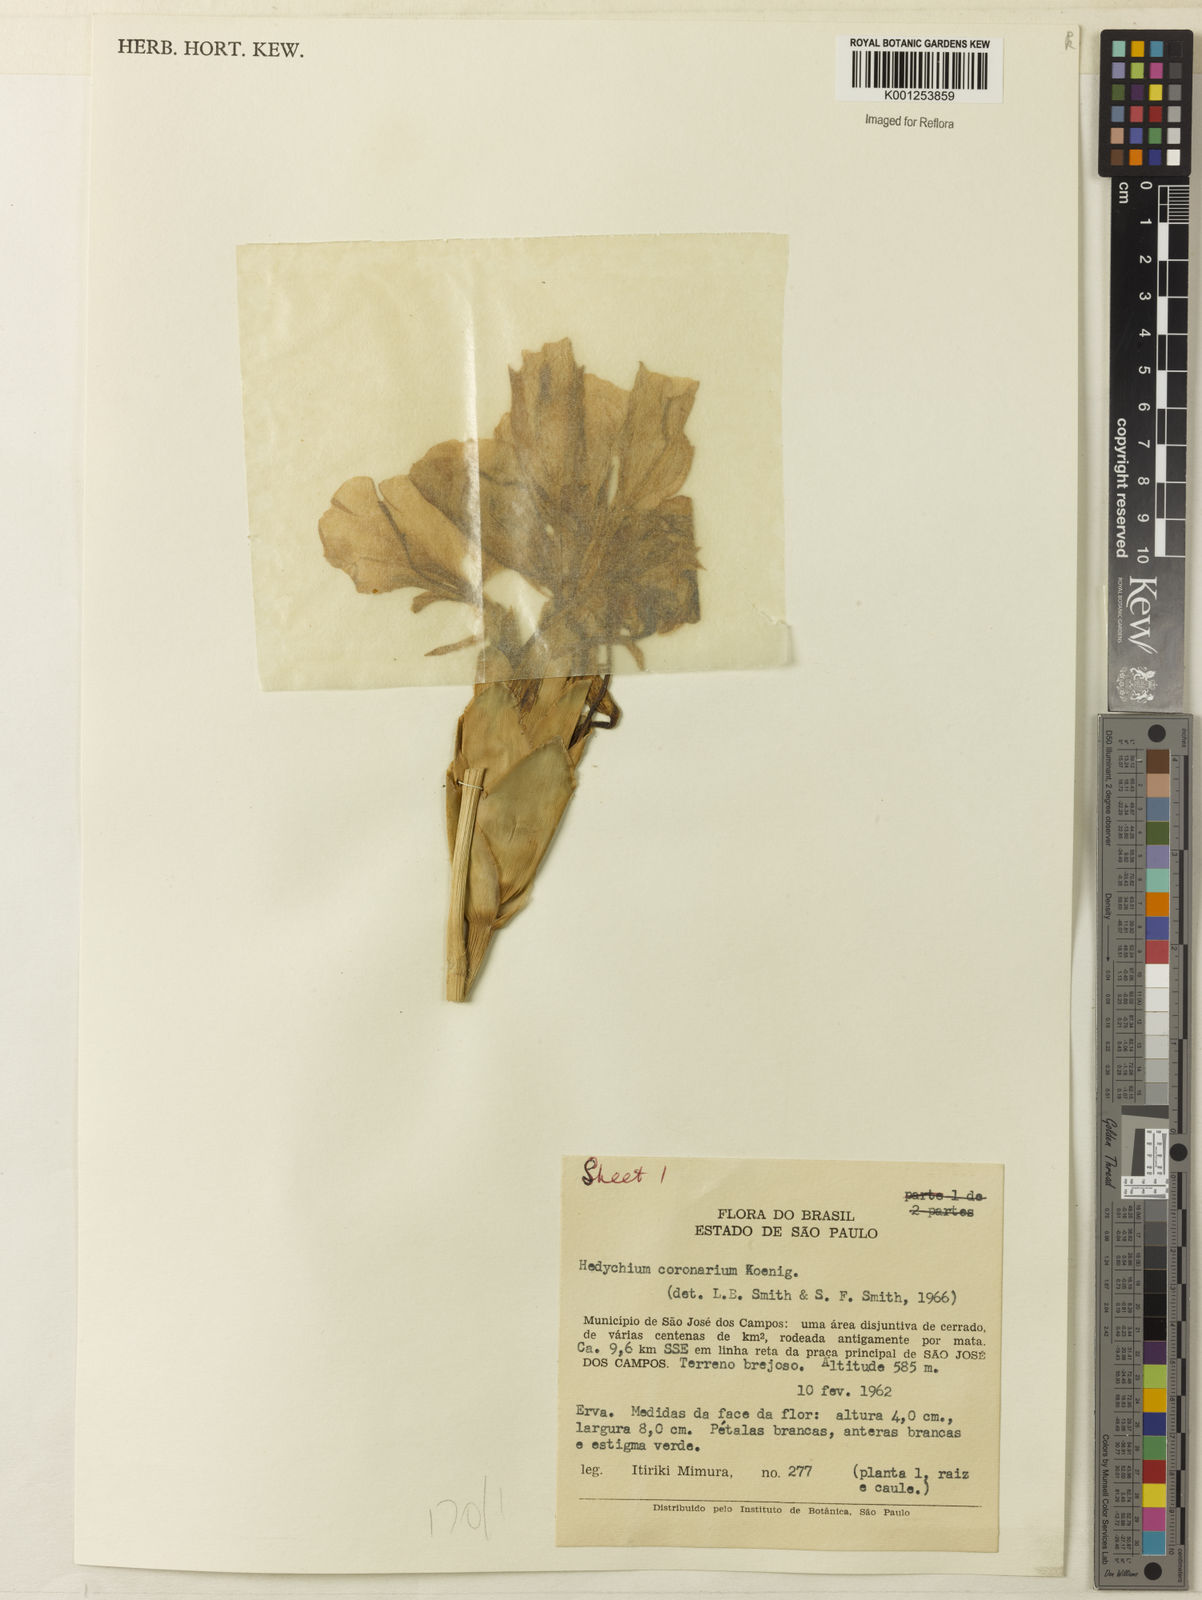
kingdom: Plantae
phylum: Tracheophyta
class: Liliopsida
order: Zingiberales
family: Zingiberaceae
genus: Hedychium
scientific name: Hedychium coronarium
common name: White garland-lily
